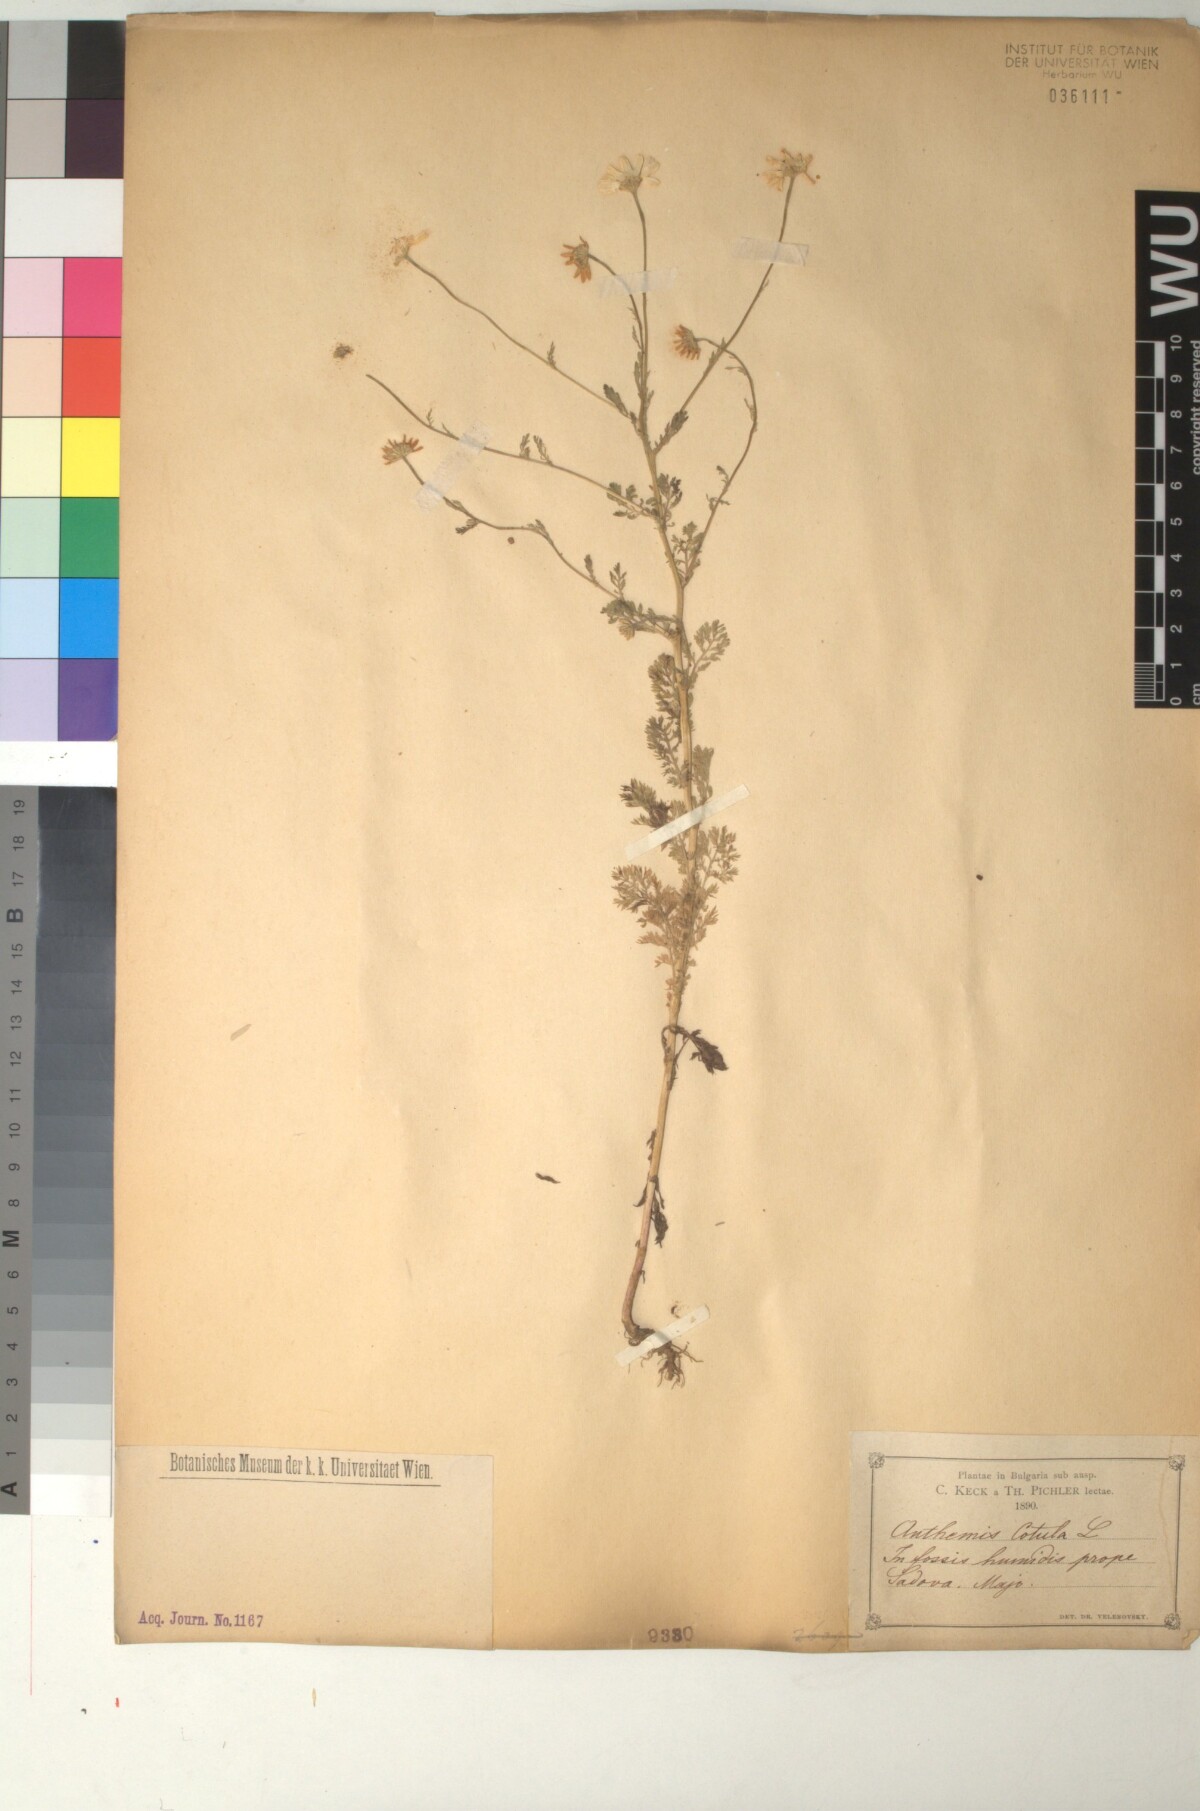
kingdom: Plantae
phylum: Tracheophyta
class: Magnoliopsida
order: Asterales
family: Asteraceae
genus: Anthemis
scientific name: Anthemis cotula
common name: Stinking chamomile
